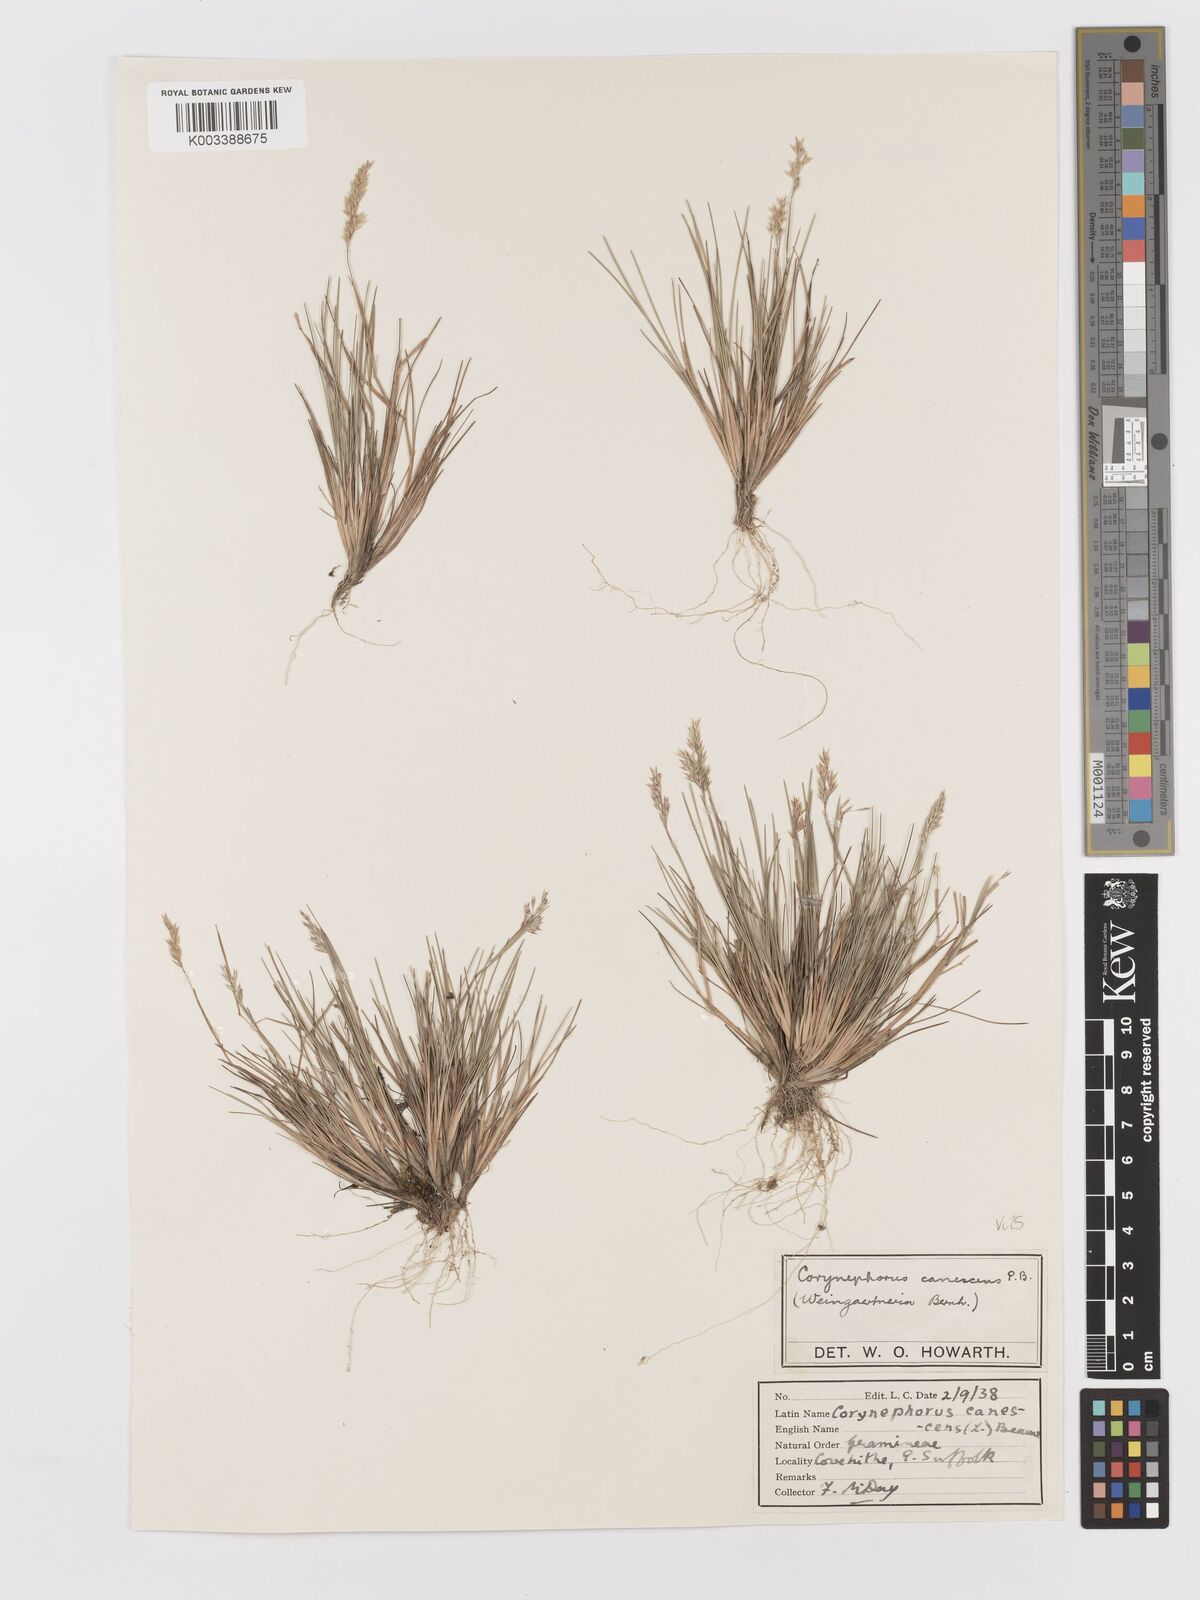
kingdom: Plantae
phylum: Tracheophyta
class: Liliopsida
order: Poales
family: Poaceae
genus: Corynephorus
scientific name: Corynephorus canescens
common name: Grey hair-grass
